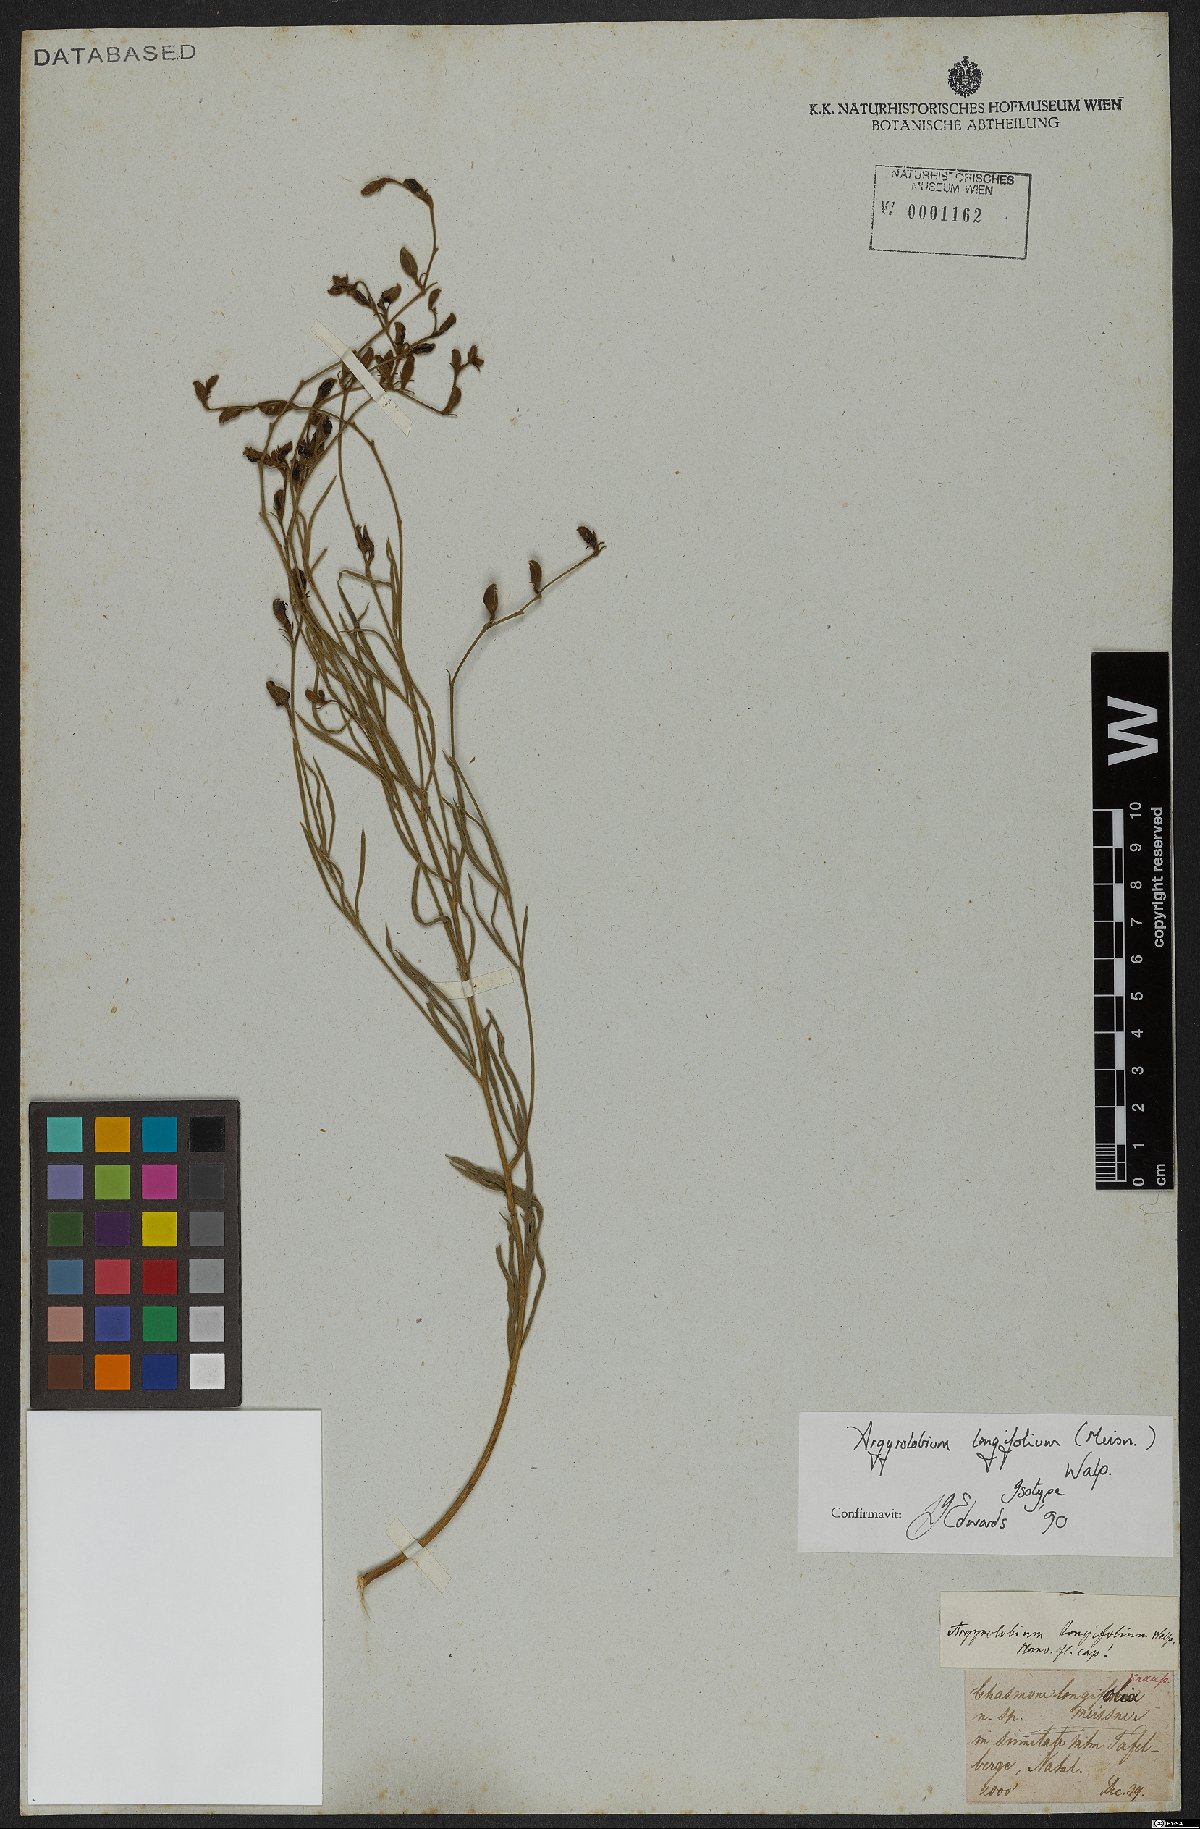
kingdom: Plantae
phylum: Tracheophyta
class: Magnoliopsida
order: Fabales
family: Fabaceae
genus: Argyrolobium
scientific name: Argyrolobium longifolium
